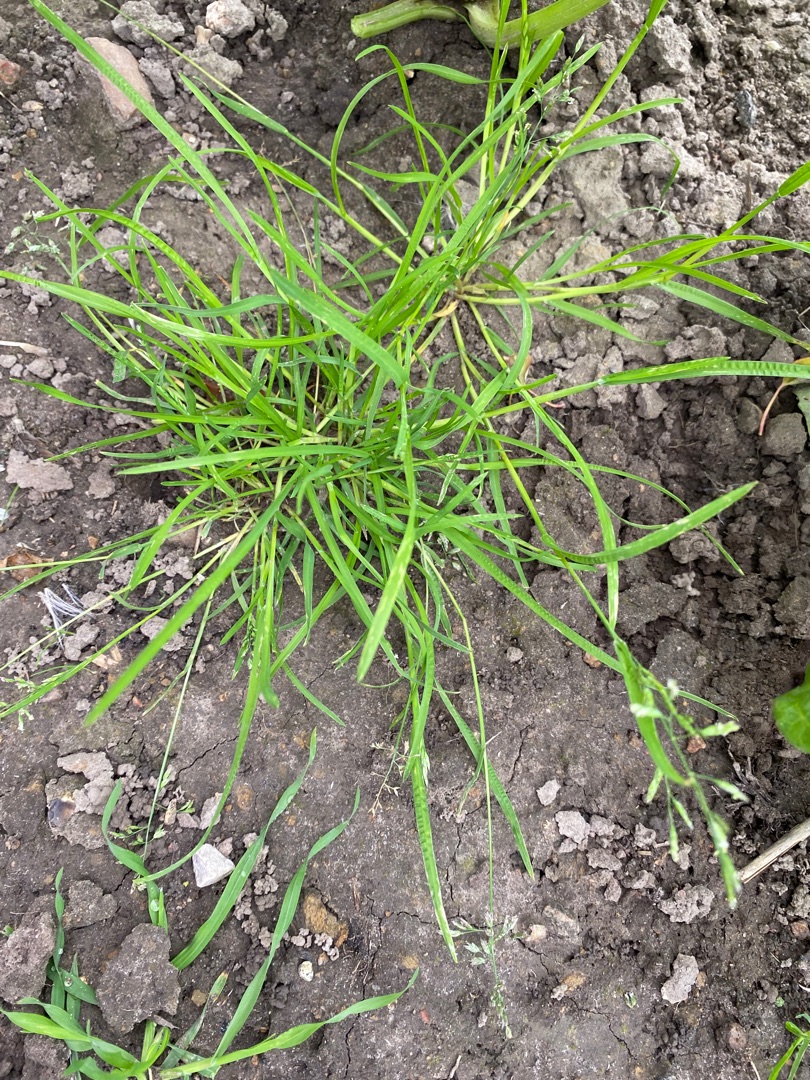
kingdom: Plantae
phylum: Tracheophyta
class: Liliopsida
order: Poales
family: Poaceae
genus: Poa
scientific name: Poa annua
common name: Enårig rapgræs
